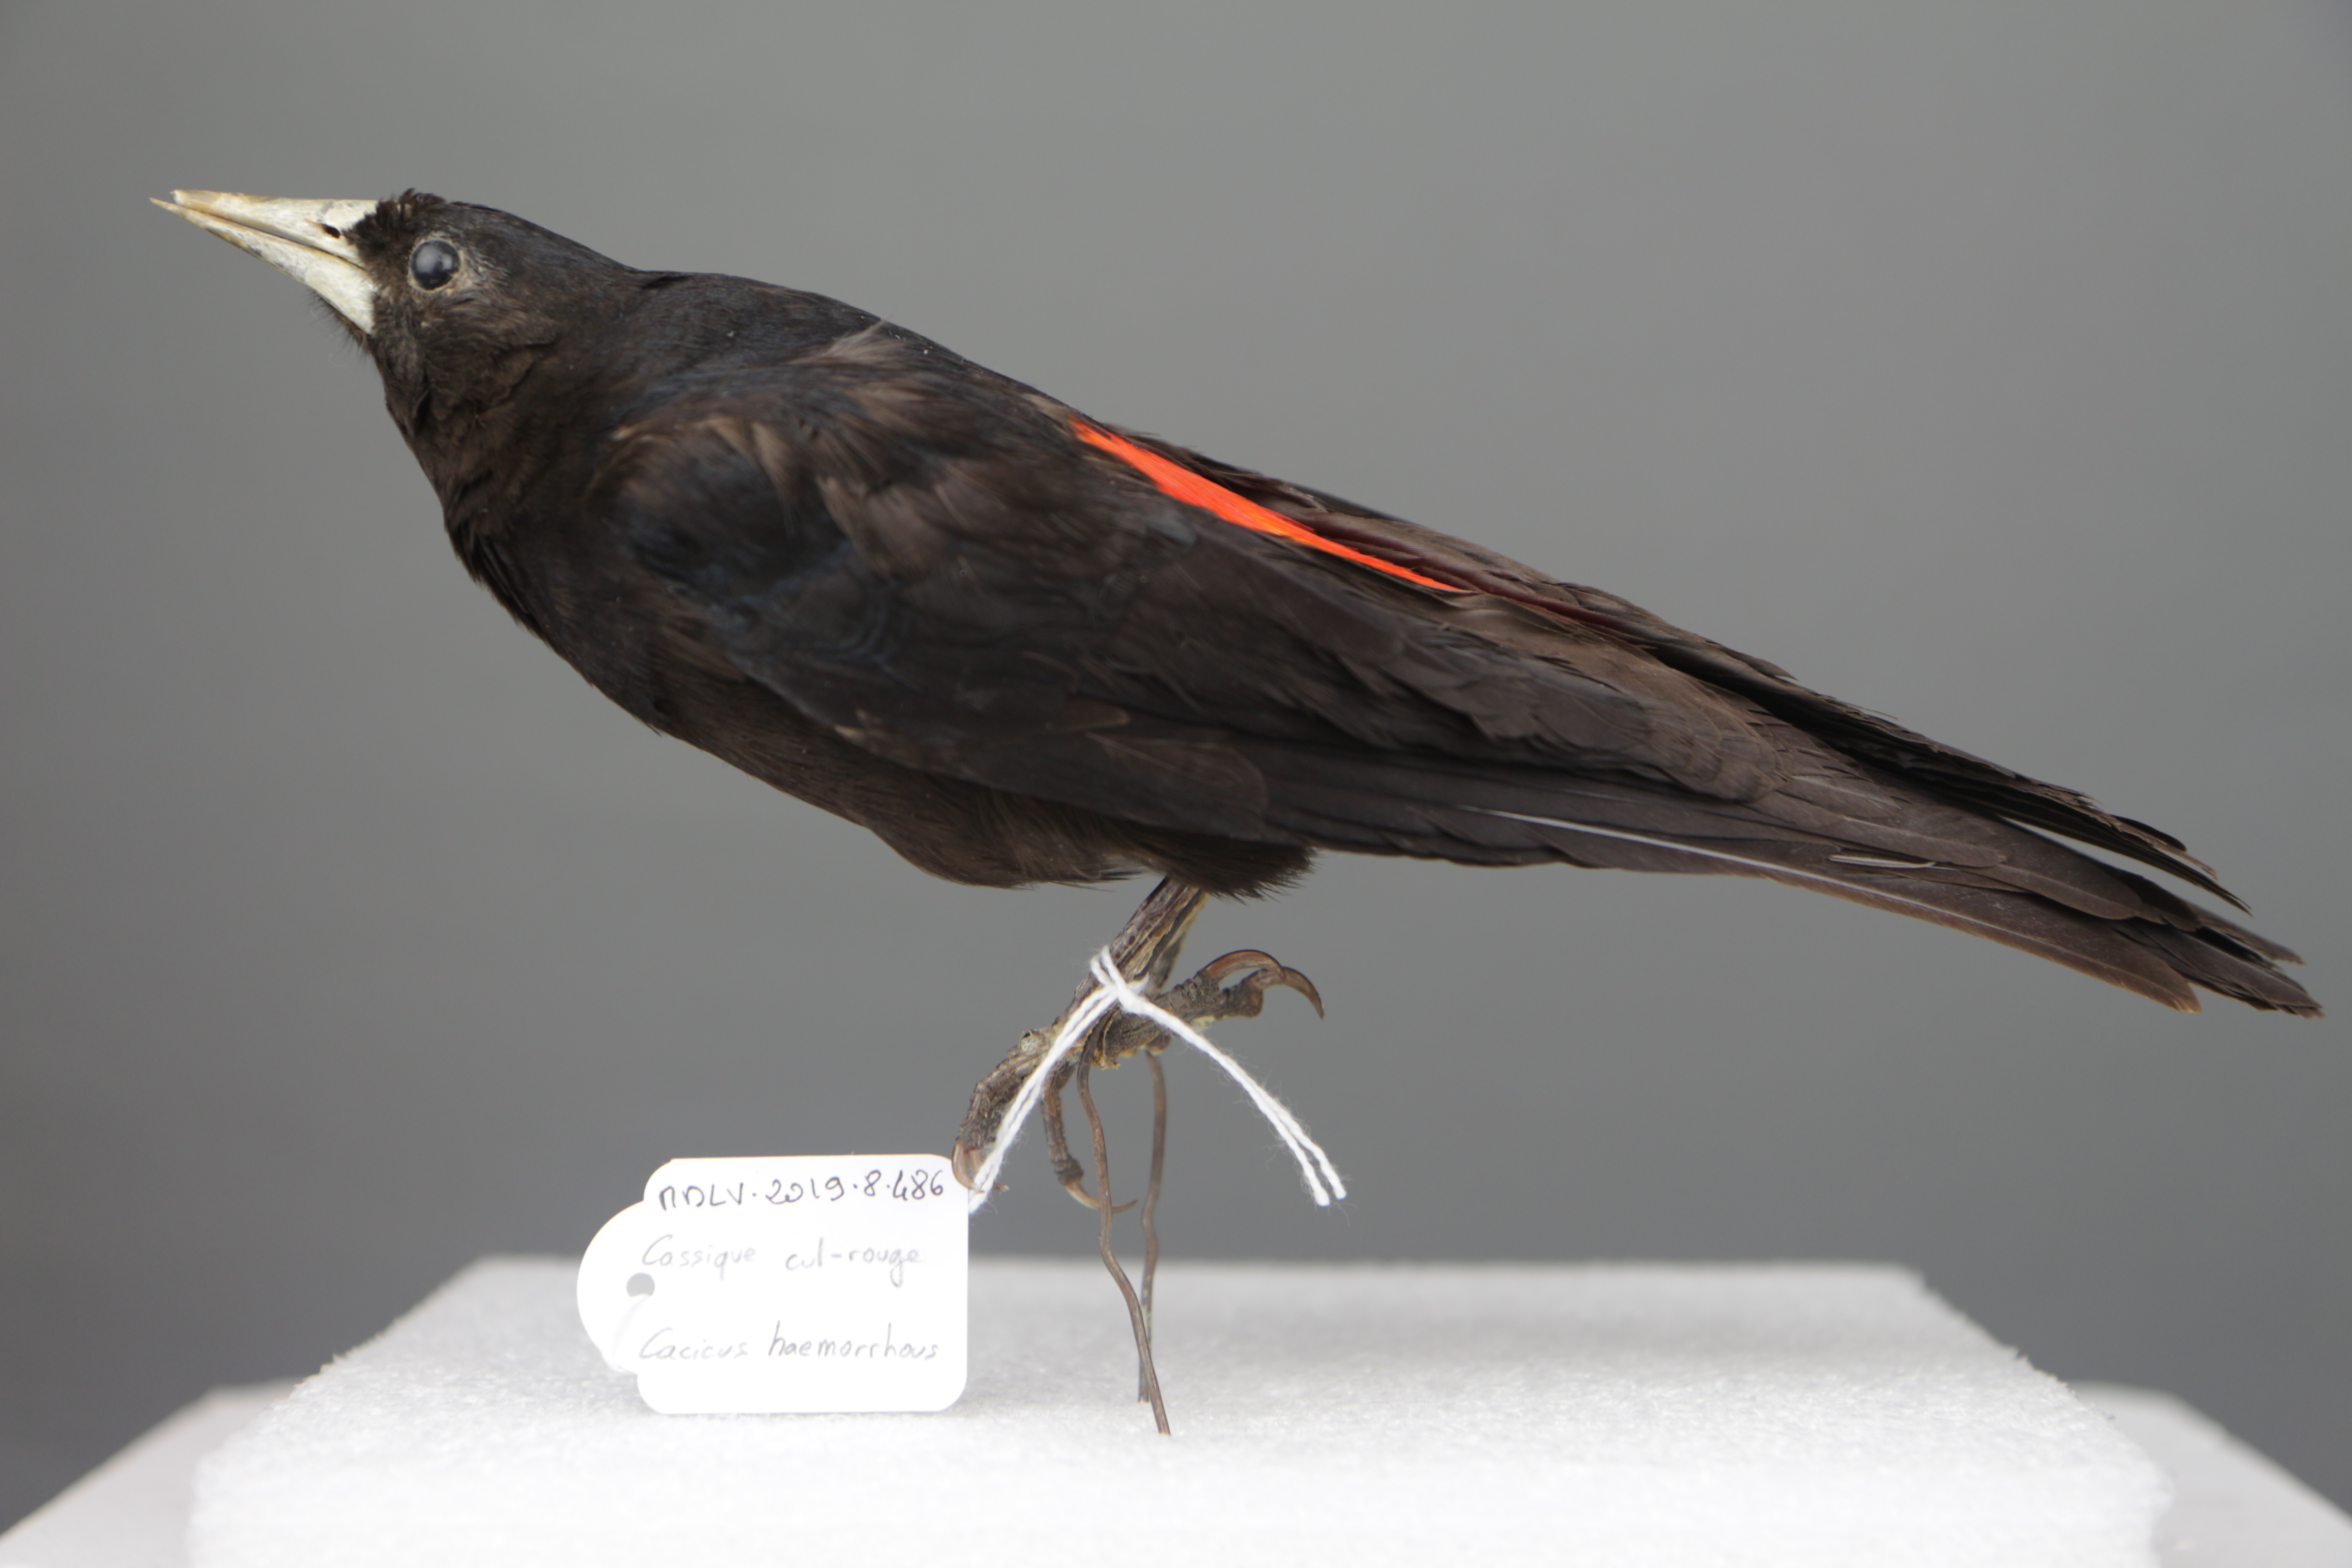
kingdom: Animalia
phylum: Chordata
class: Aves
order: Passeriformes
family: Icteridae
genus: Cacicus
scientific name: Cacicus haemorrhous
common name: Red-rumped cacique
